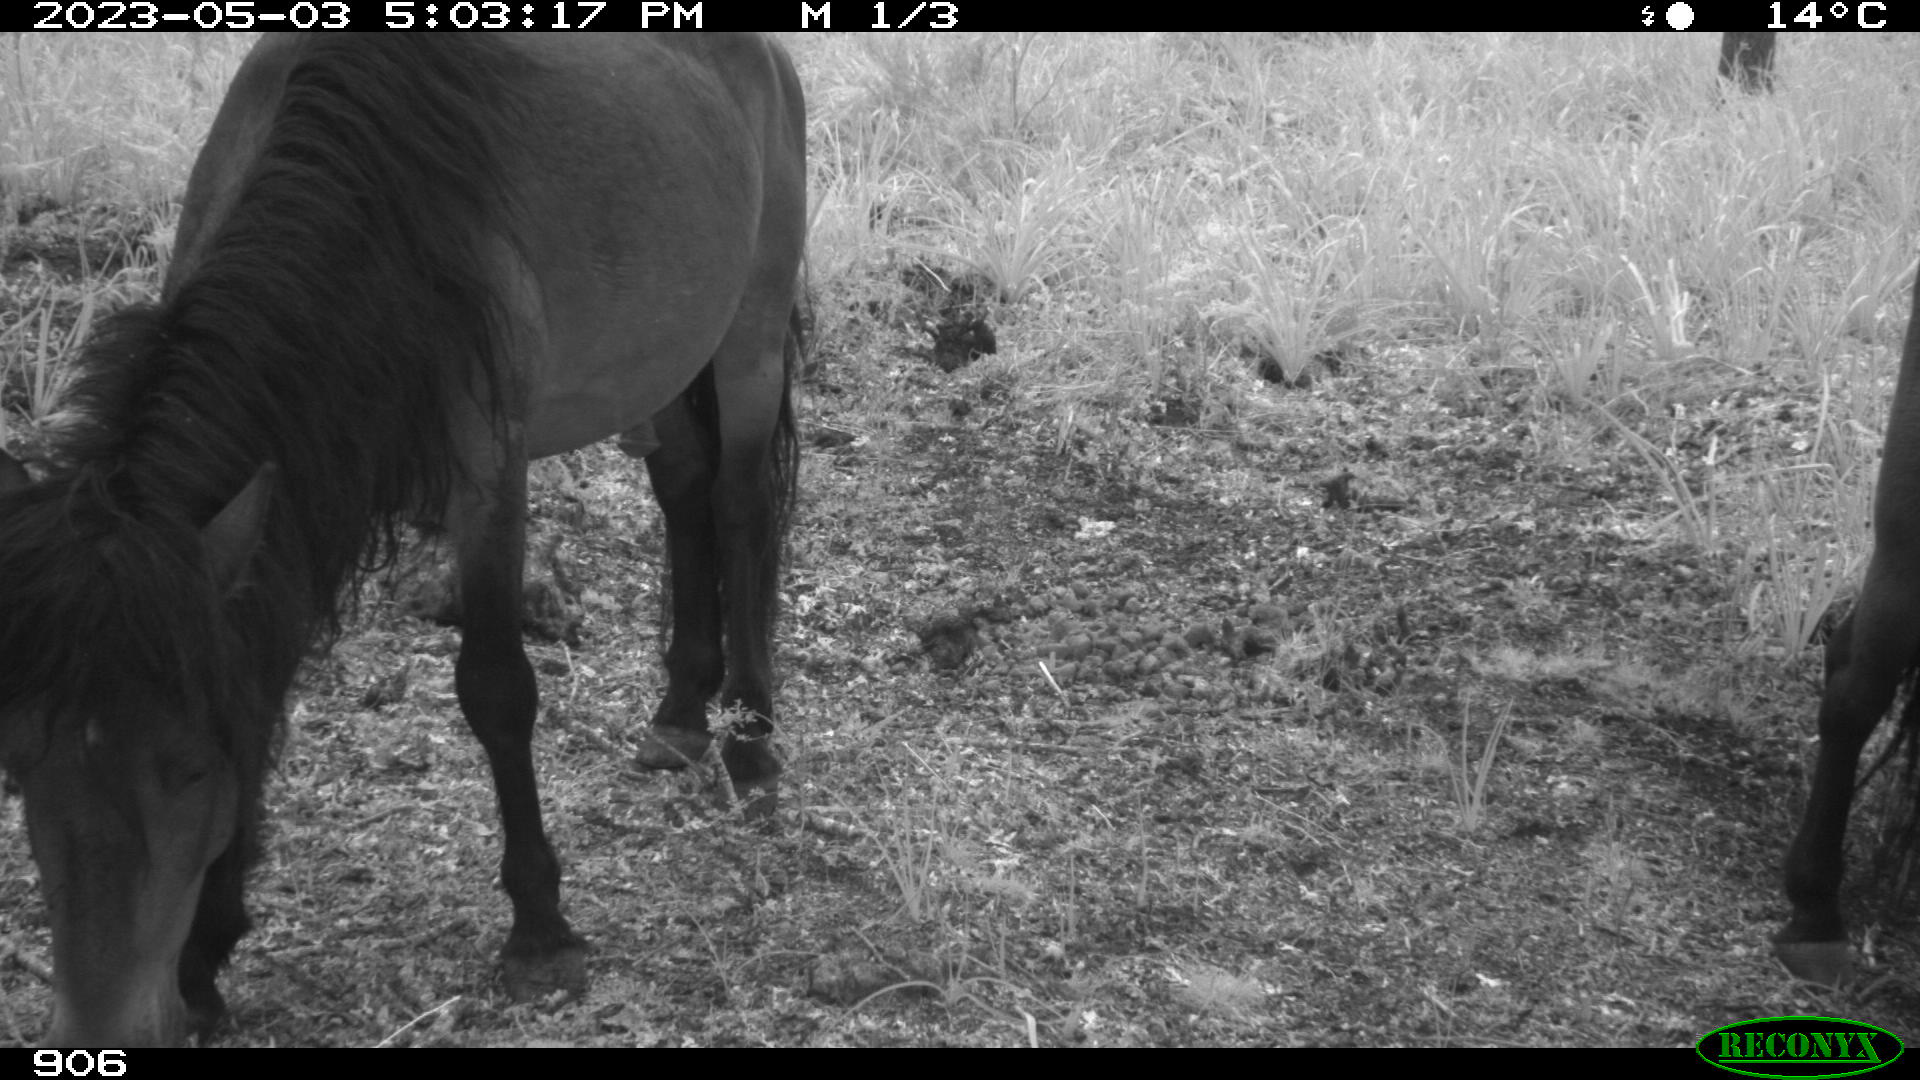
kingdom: Animalia
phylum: Chordata
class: Mammalia
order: Perissodactyla
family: Equidae
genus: Equus
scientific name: Equus caballus
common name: Horse
